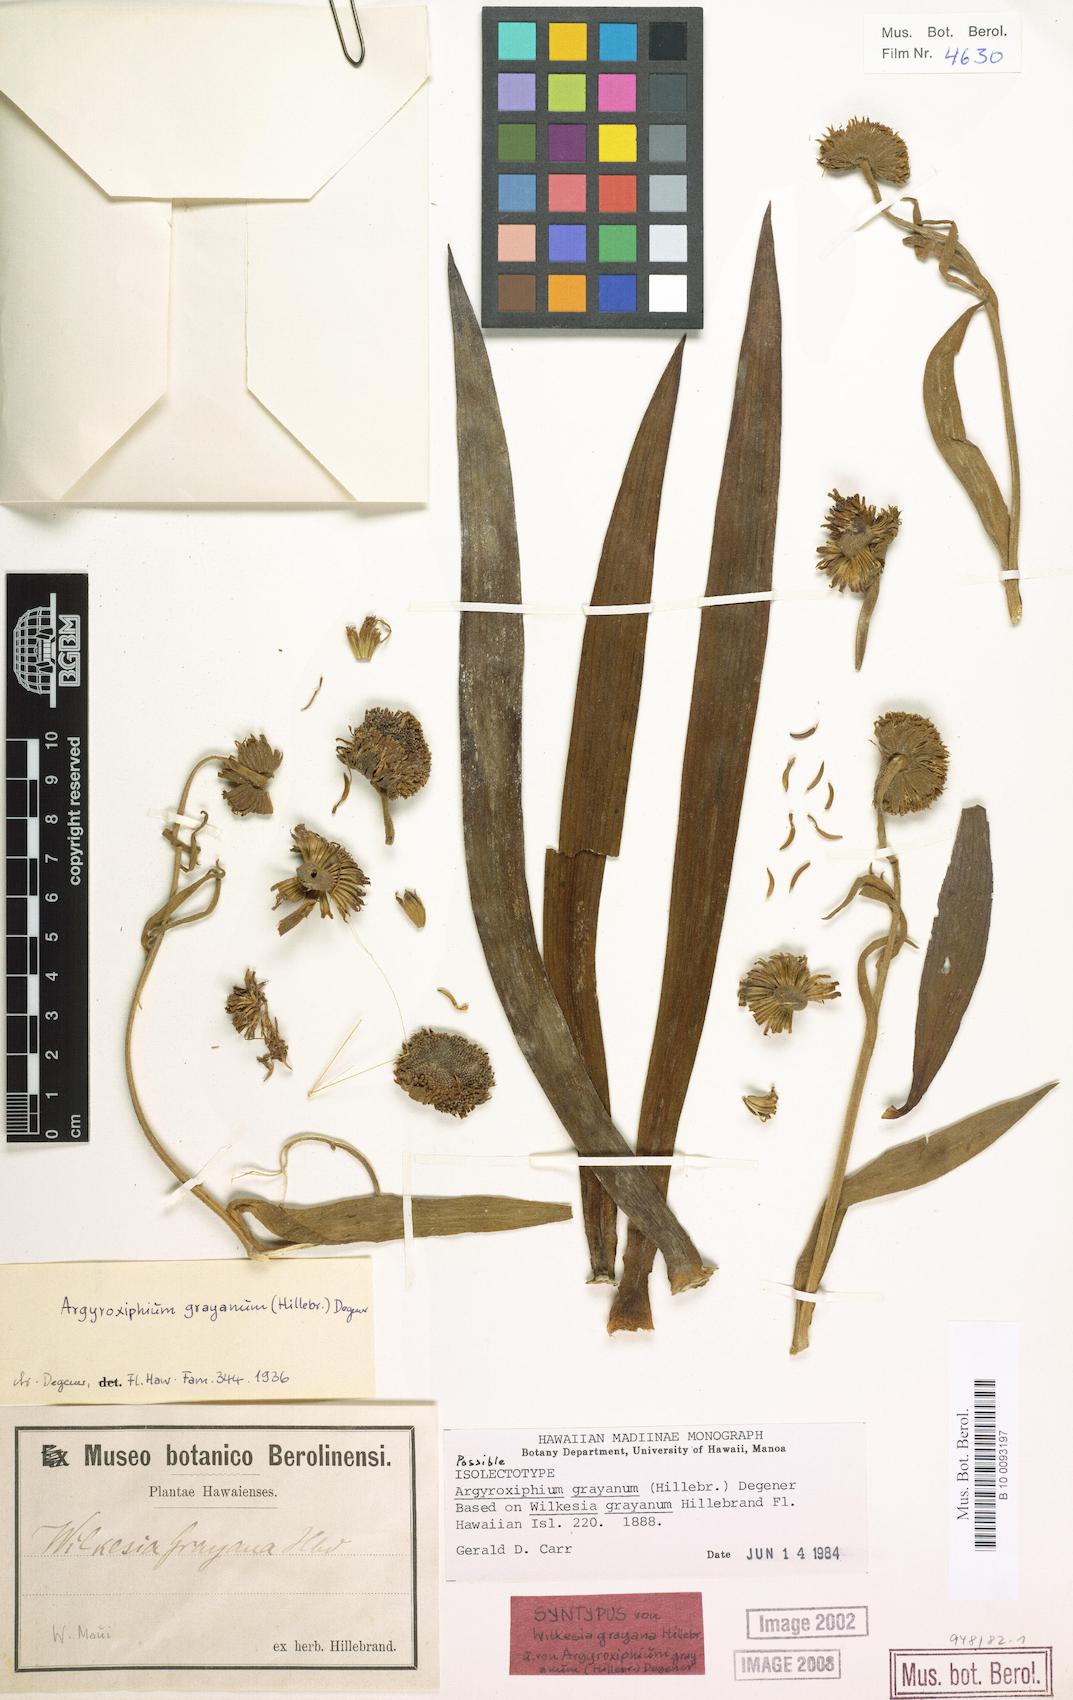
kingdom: Plantae
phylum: Tracheophyta
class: Magnoliopsida
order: Asterales
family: Asteraceae
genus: Argyroxiphium
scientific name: Argyroxiphium grayanum
